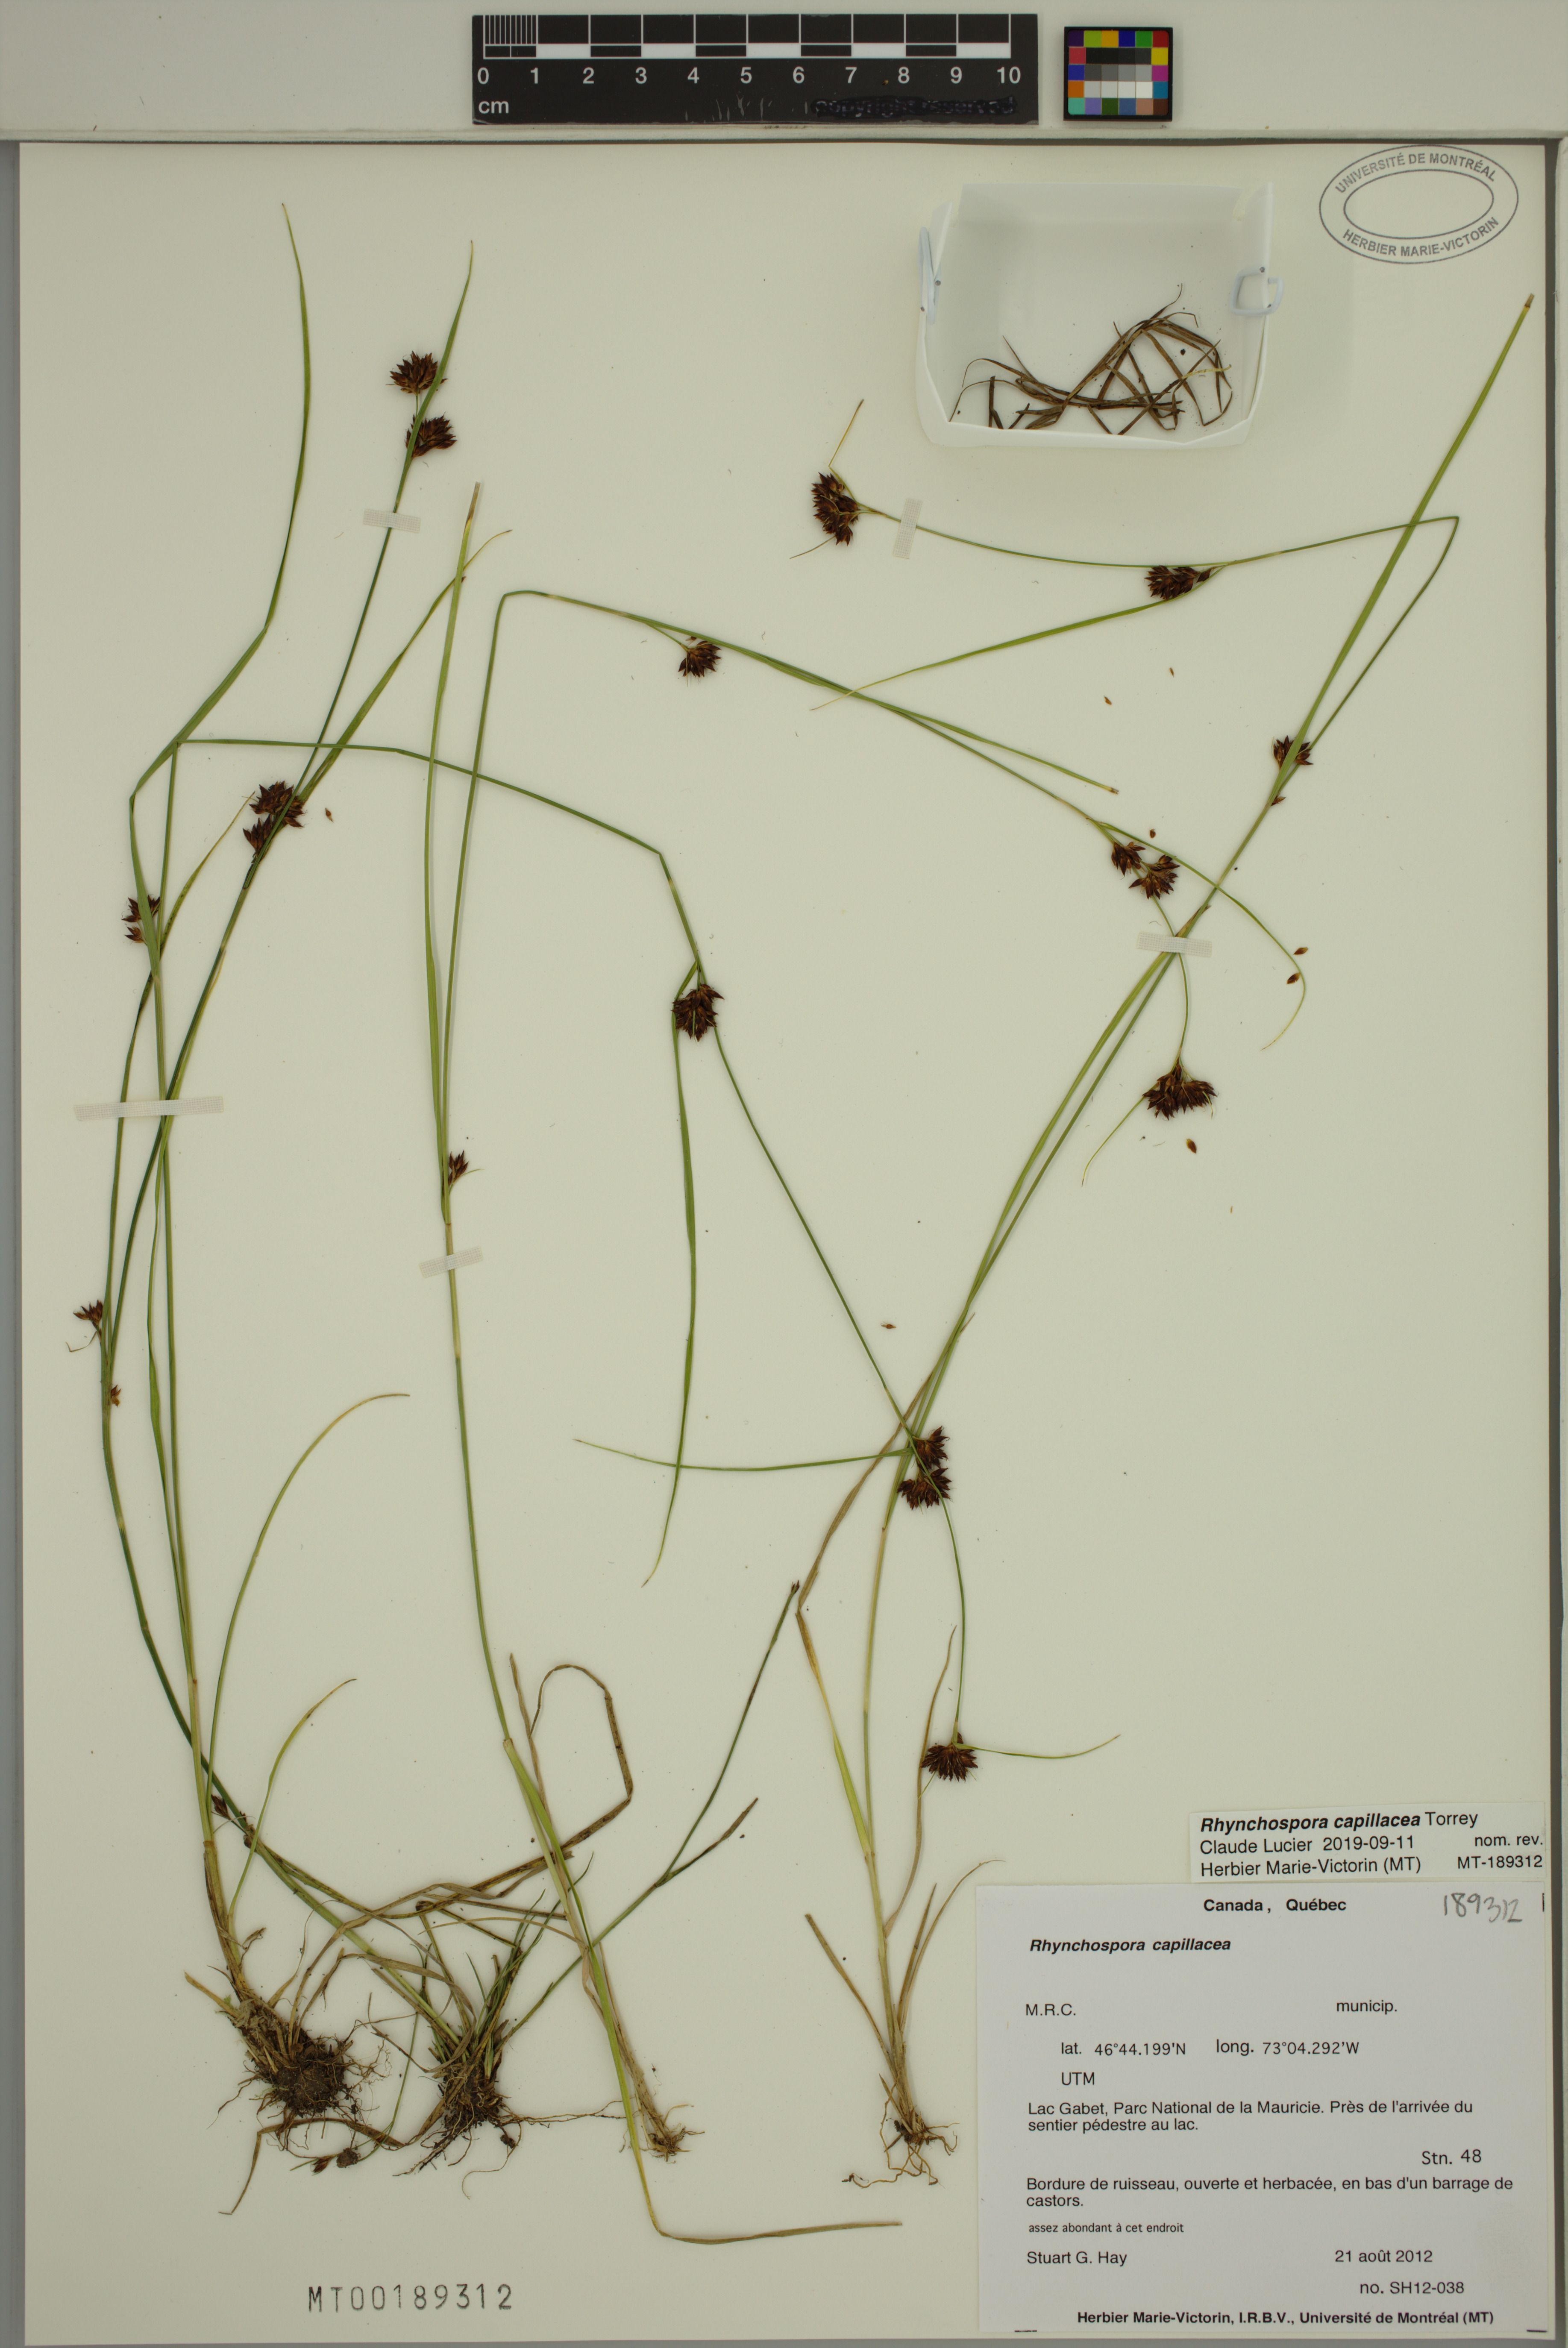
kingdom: Plantae
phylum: Tracheophyta
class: Liliopsida
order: Poales
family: Cyperaceae
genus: Rhynchospora
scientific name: Rhynchospora capillacea
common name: Capillary beakrush
